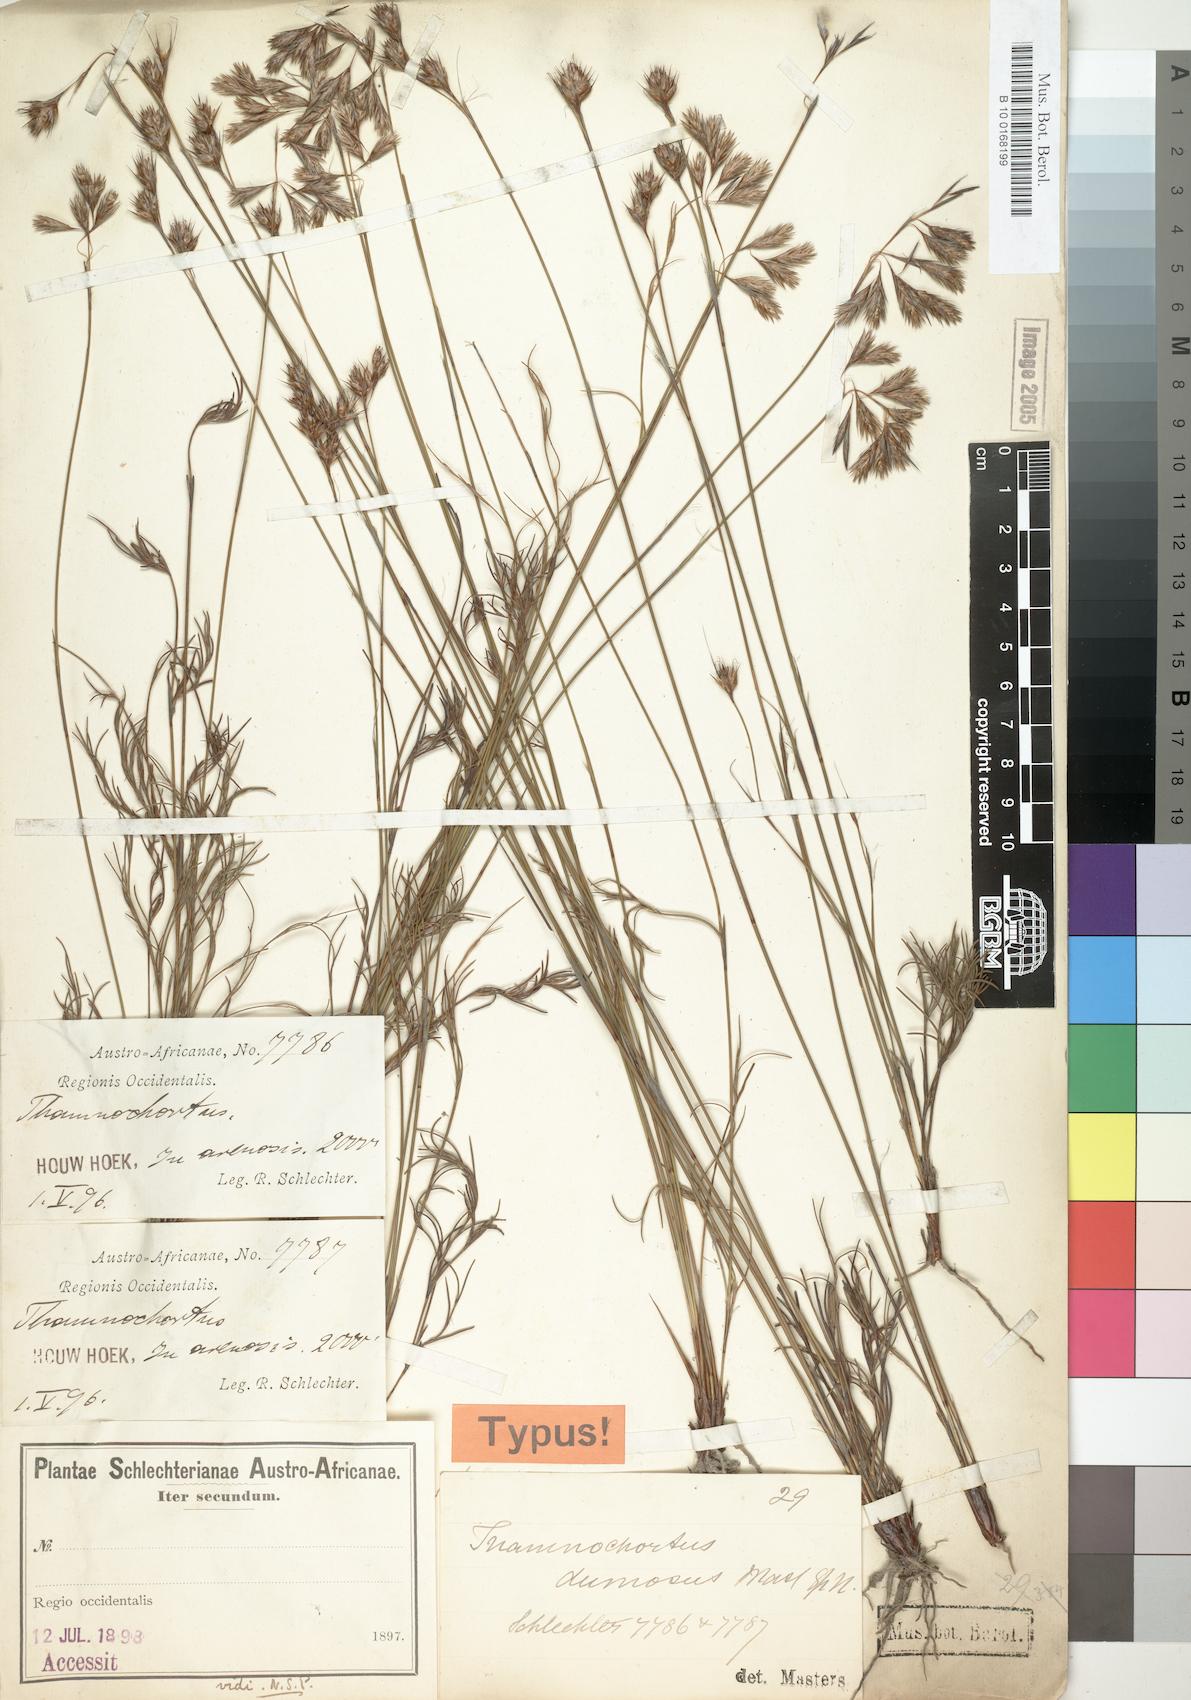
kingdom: Plantae
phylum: Tracheophyta
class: Liliopsida
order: Poales
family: Restionaceae
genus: Thamnochortus
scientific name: Thamnochortus dumosus
